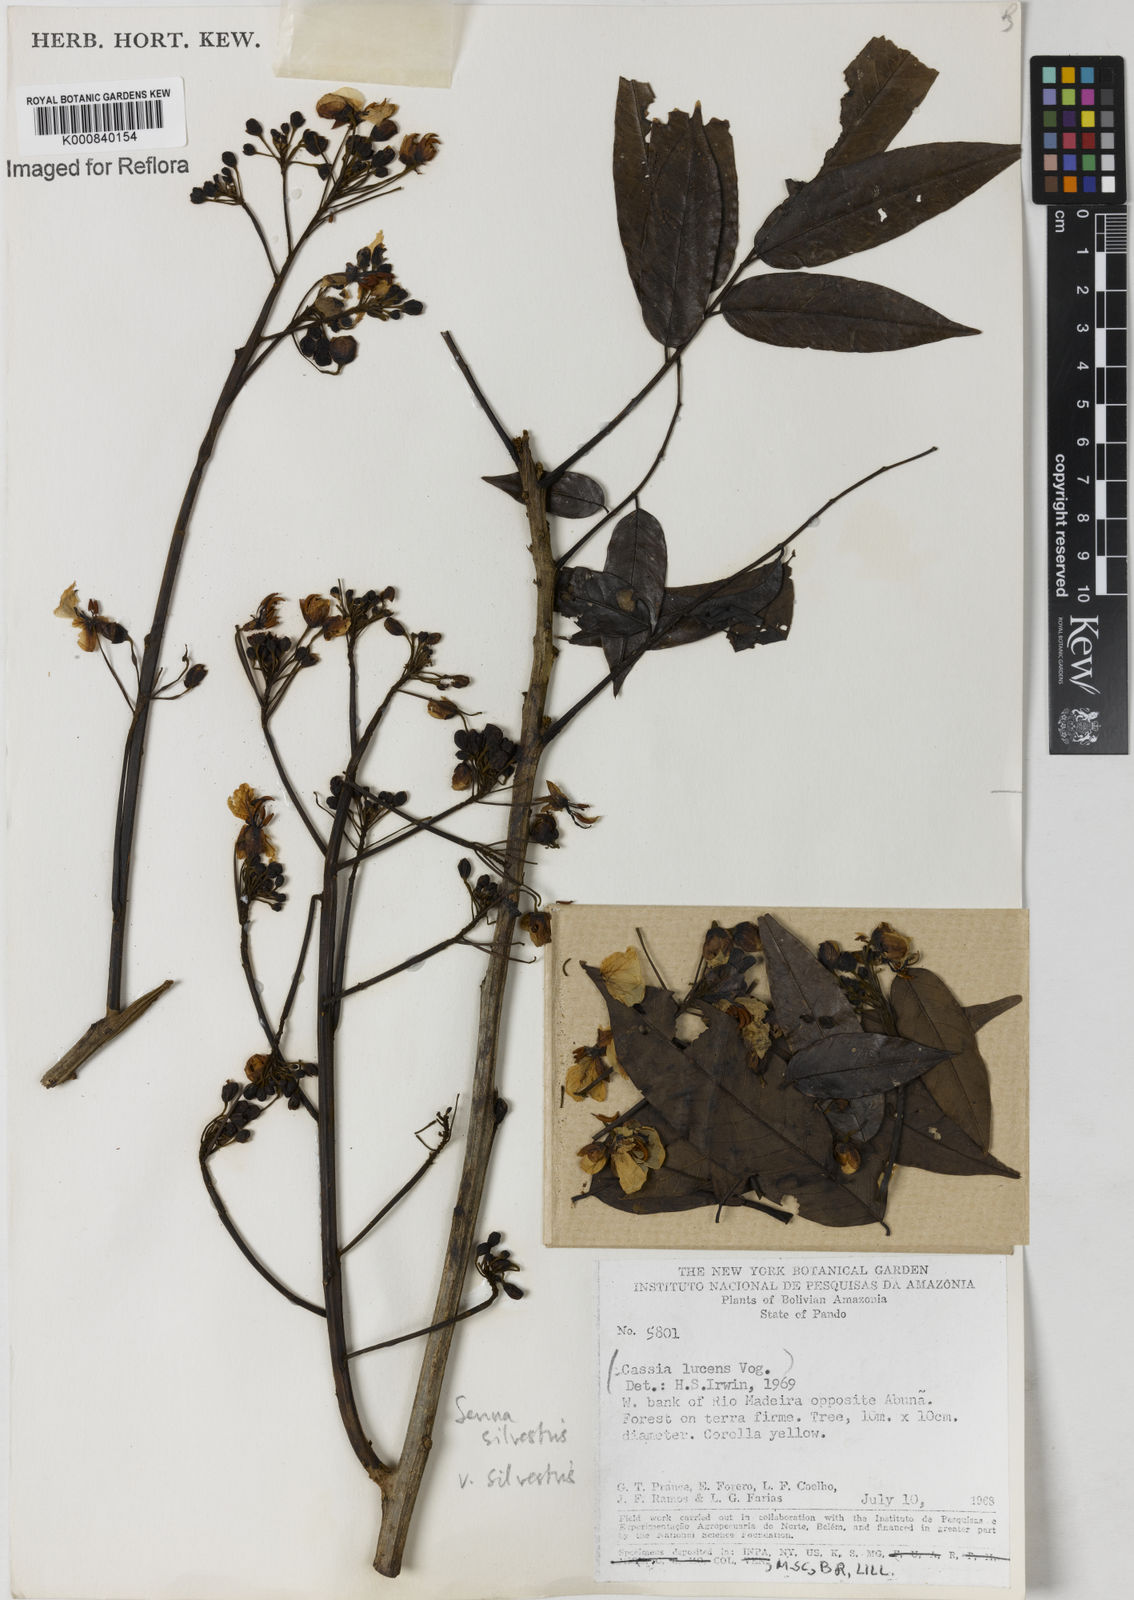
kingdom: Plantae
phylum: Tracheophyta
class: Magnoliopsida
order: Fabales
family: Fabaceae
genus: Senna
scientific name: Senna silvestris
